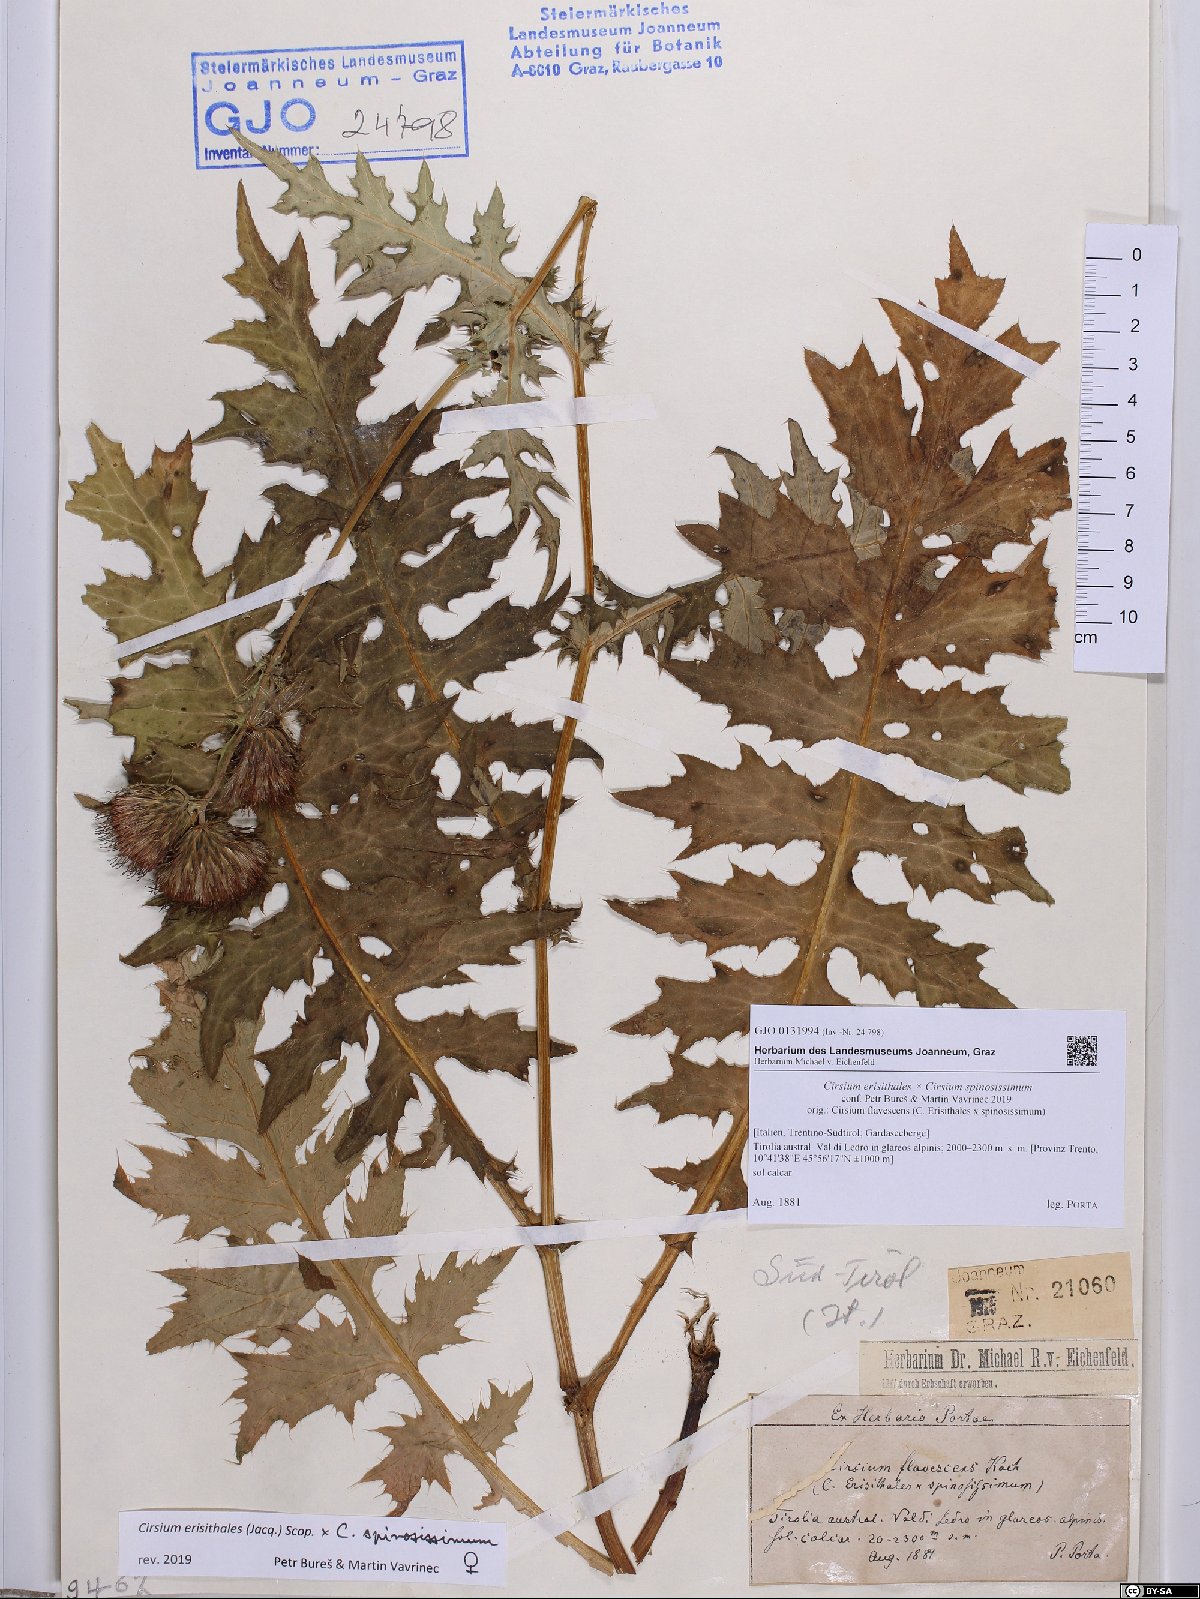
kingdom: Plantae
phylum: Tracheophyta
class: Magnoliopsida
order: Asterales
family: Asteraceae
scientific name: Asteraceae
